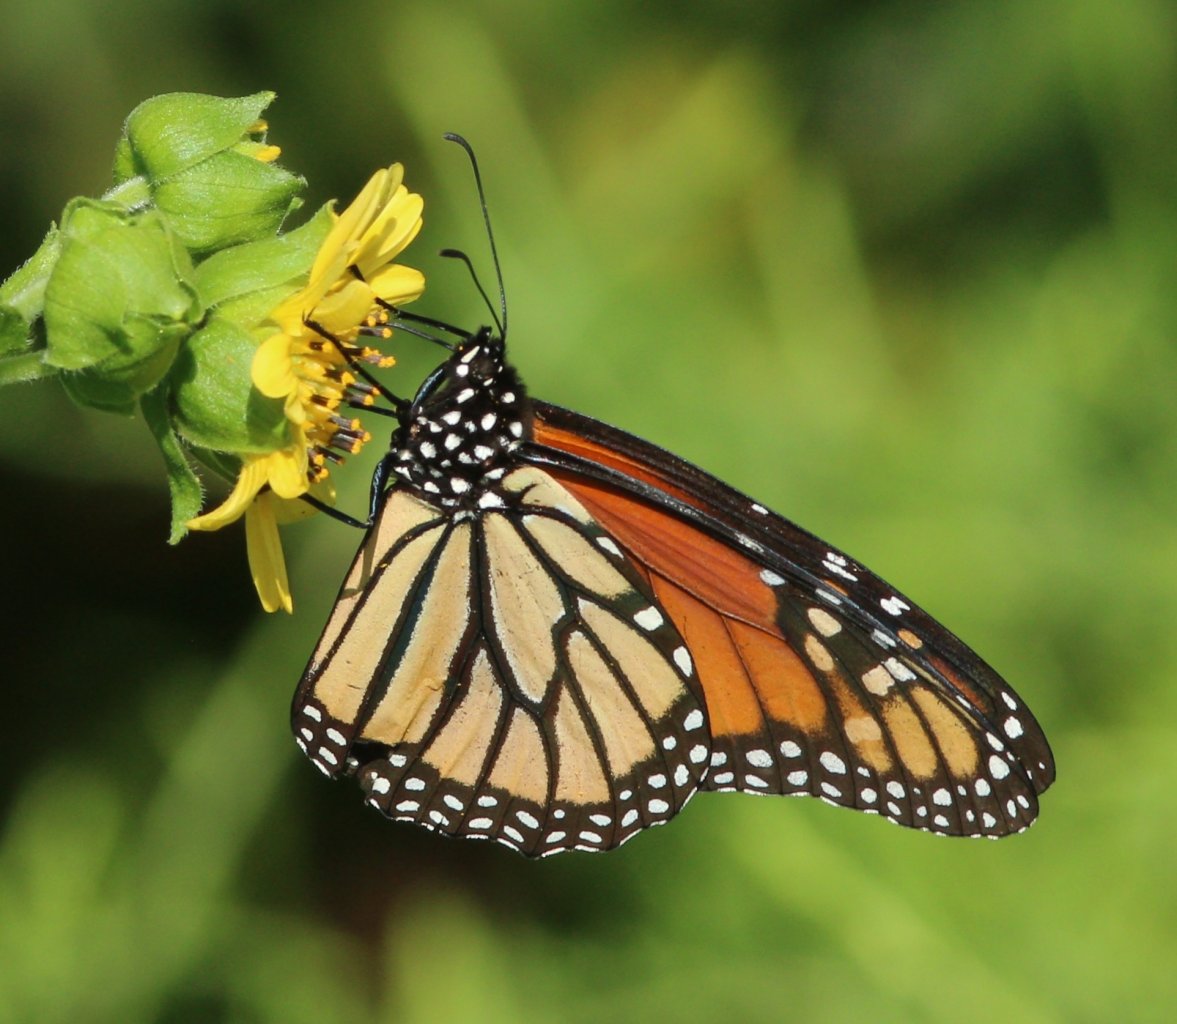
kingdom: Animalia
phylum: Arthropoda
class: Insecta
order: Lepidoptera
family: Nymphalidae
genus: Danaus
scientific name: Danaus plexippus
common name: Monarch
